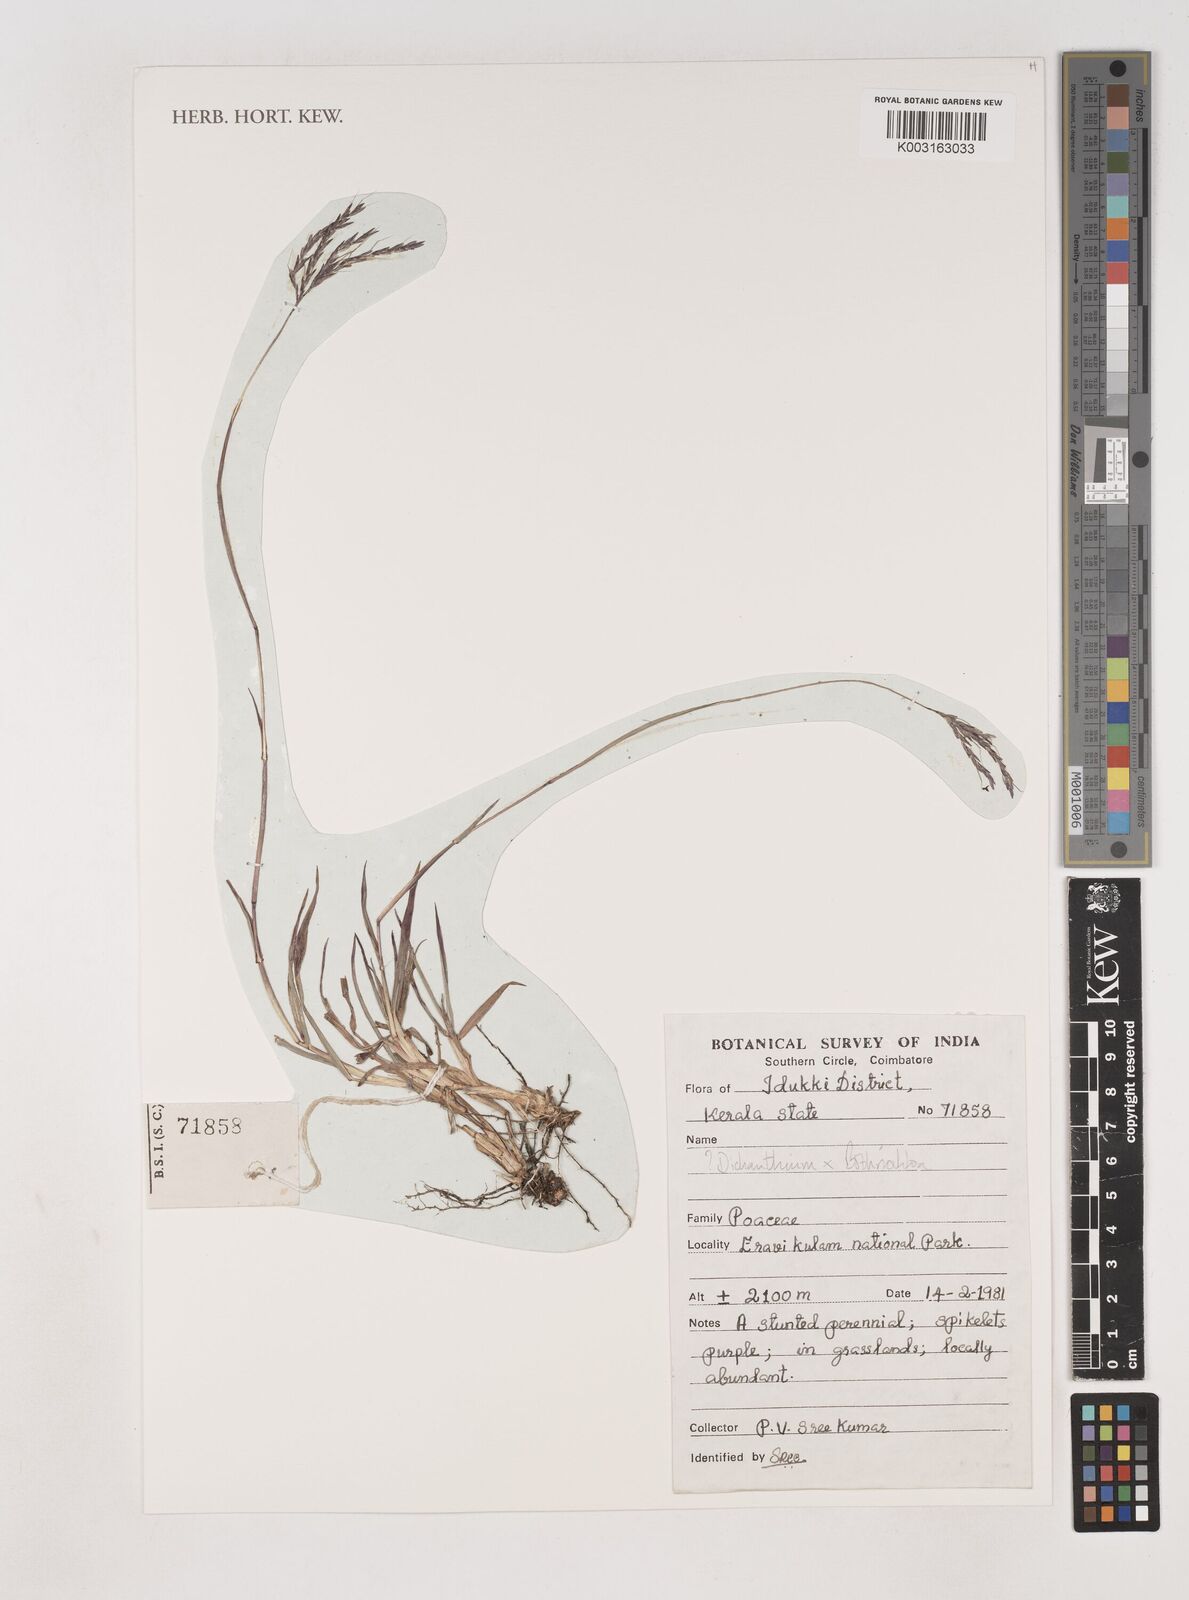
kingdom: Plantae
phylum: Tracheophyta
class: Liliopsida
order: Poales
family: Poaceae
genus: Dichanthium
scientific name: Dichanthium
